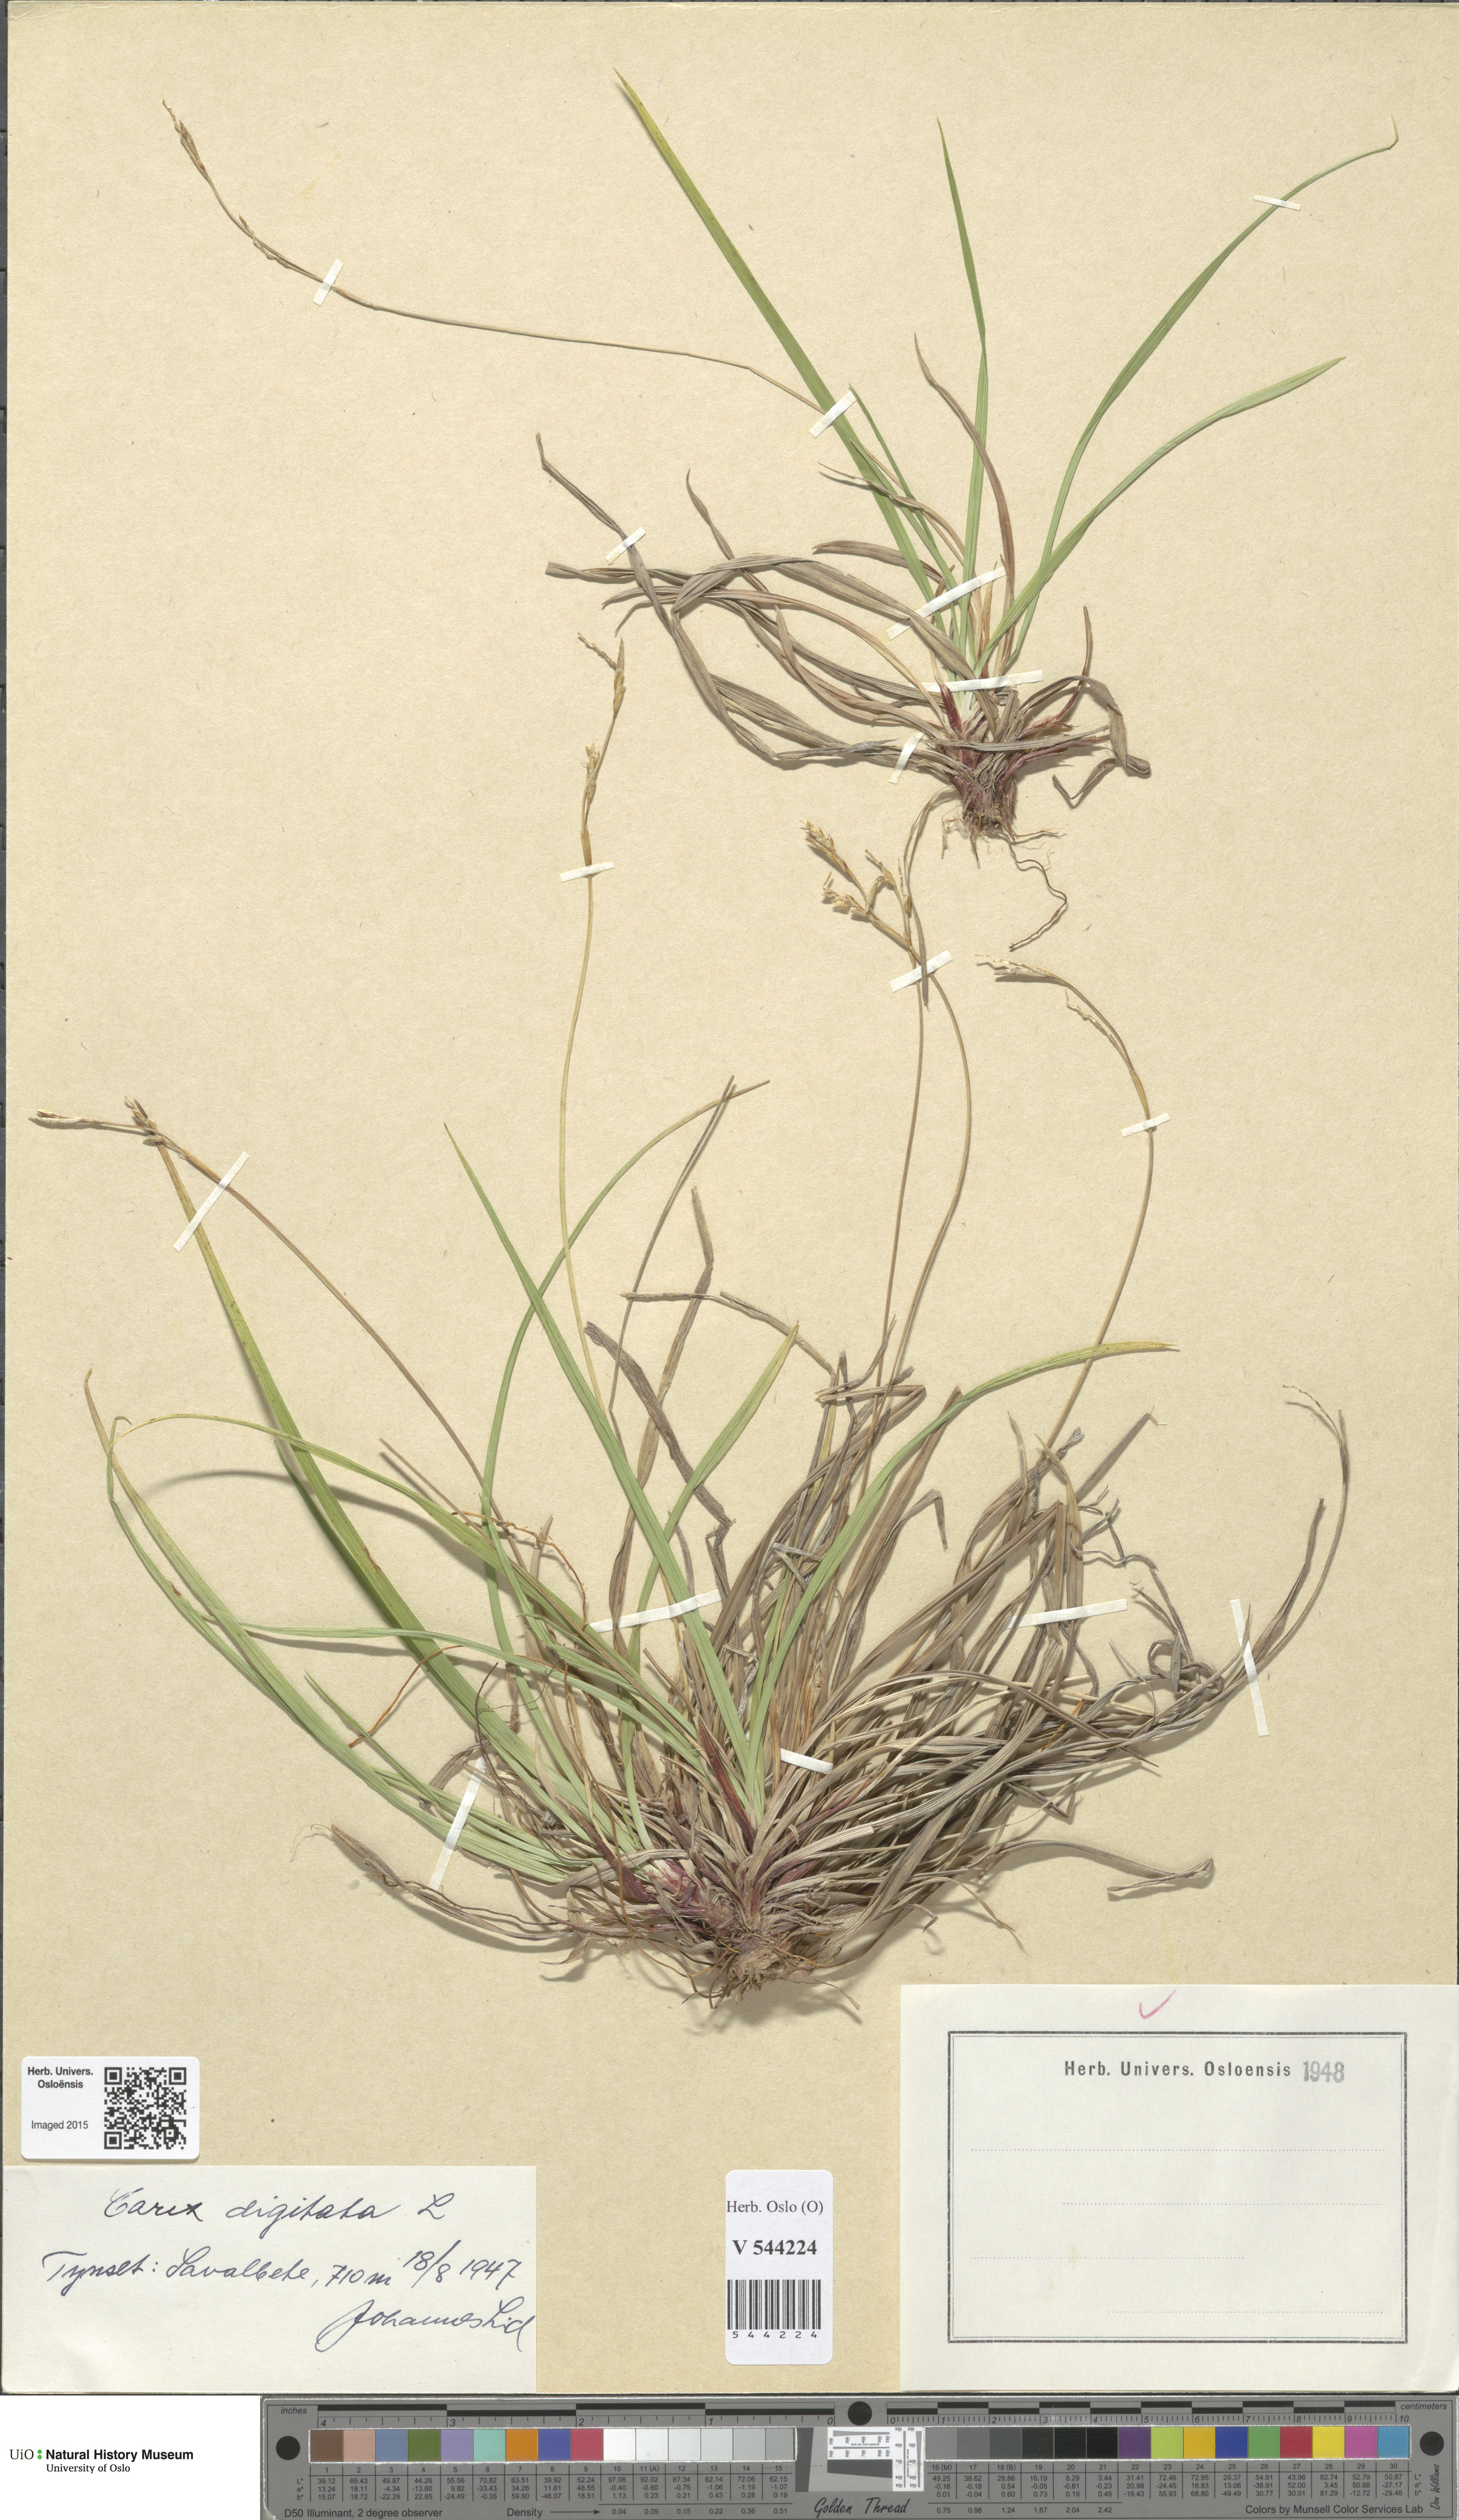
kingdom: Plantae
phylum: Tracheophyta
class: Liliopsida
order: Poales
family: Cyperaceae
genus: Carex
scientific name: Carex digitata
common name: Fingered sedge
